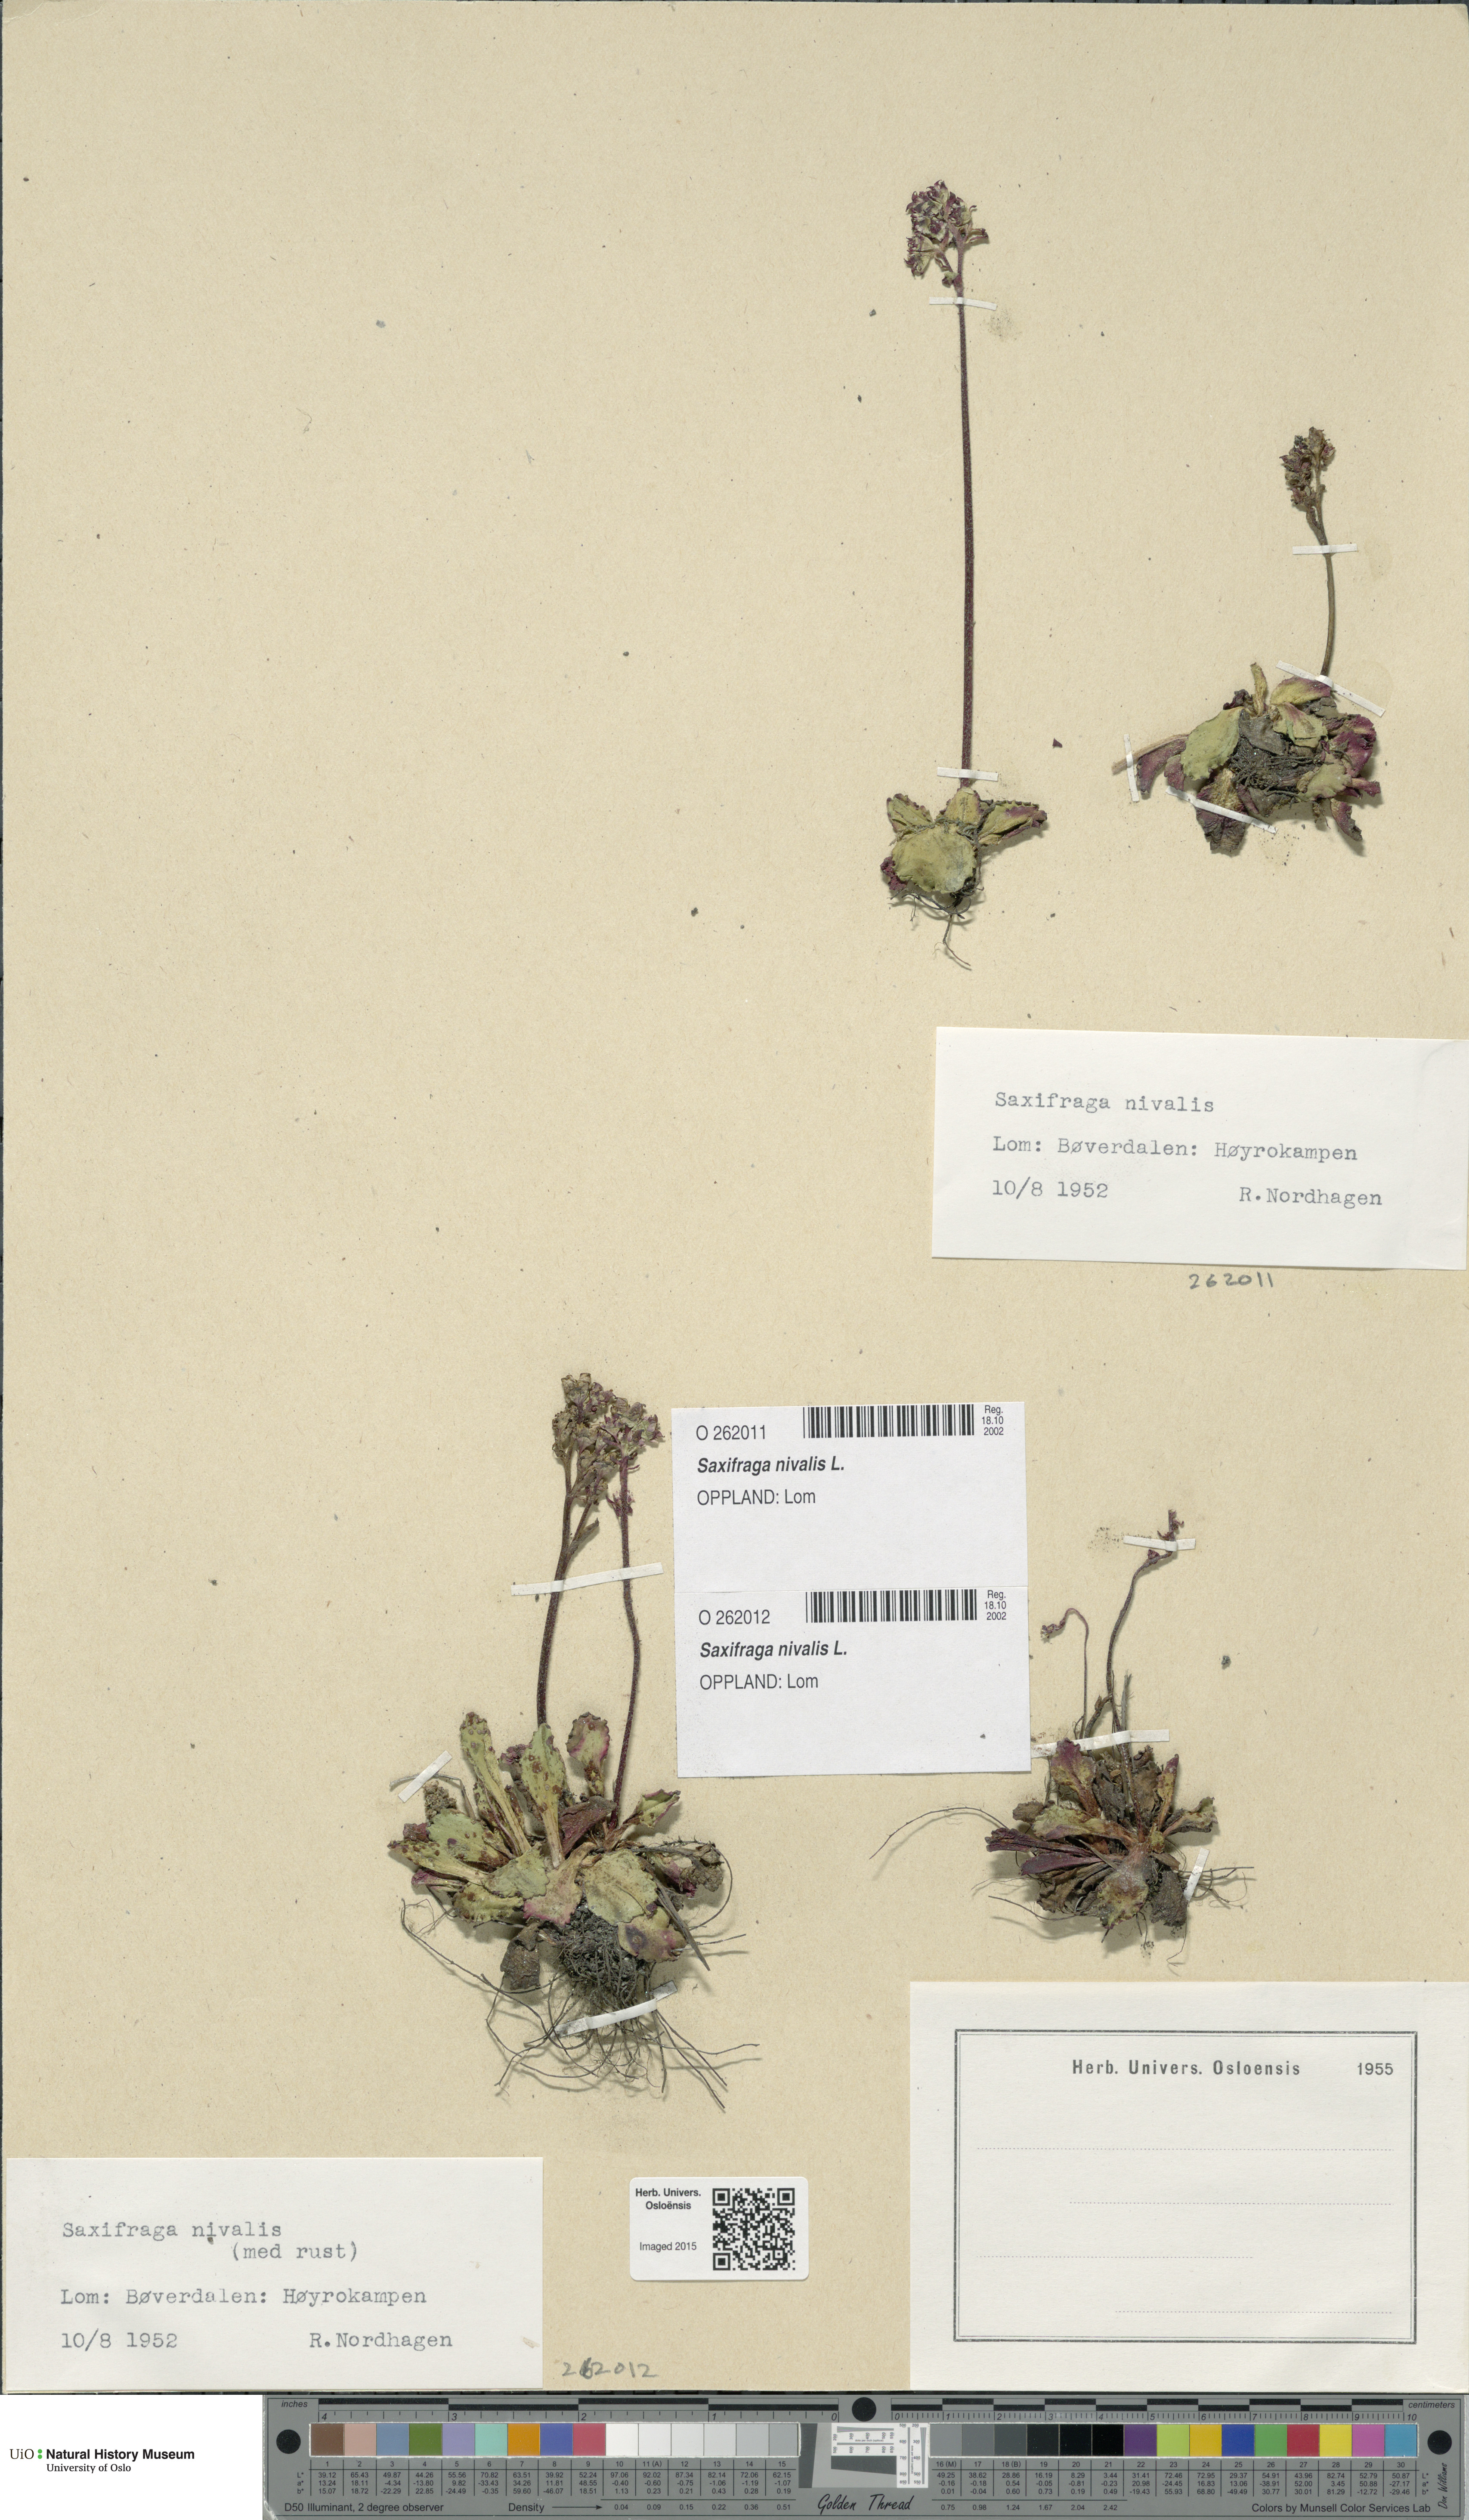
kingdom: Plantae
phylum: Tracheophyta
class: Magnoliopsida
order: Saxifragales
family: Saxifragaceae
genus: Micranthes
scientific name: Micranthes nivalis
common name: Alpine saxifrage
